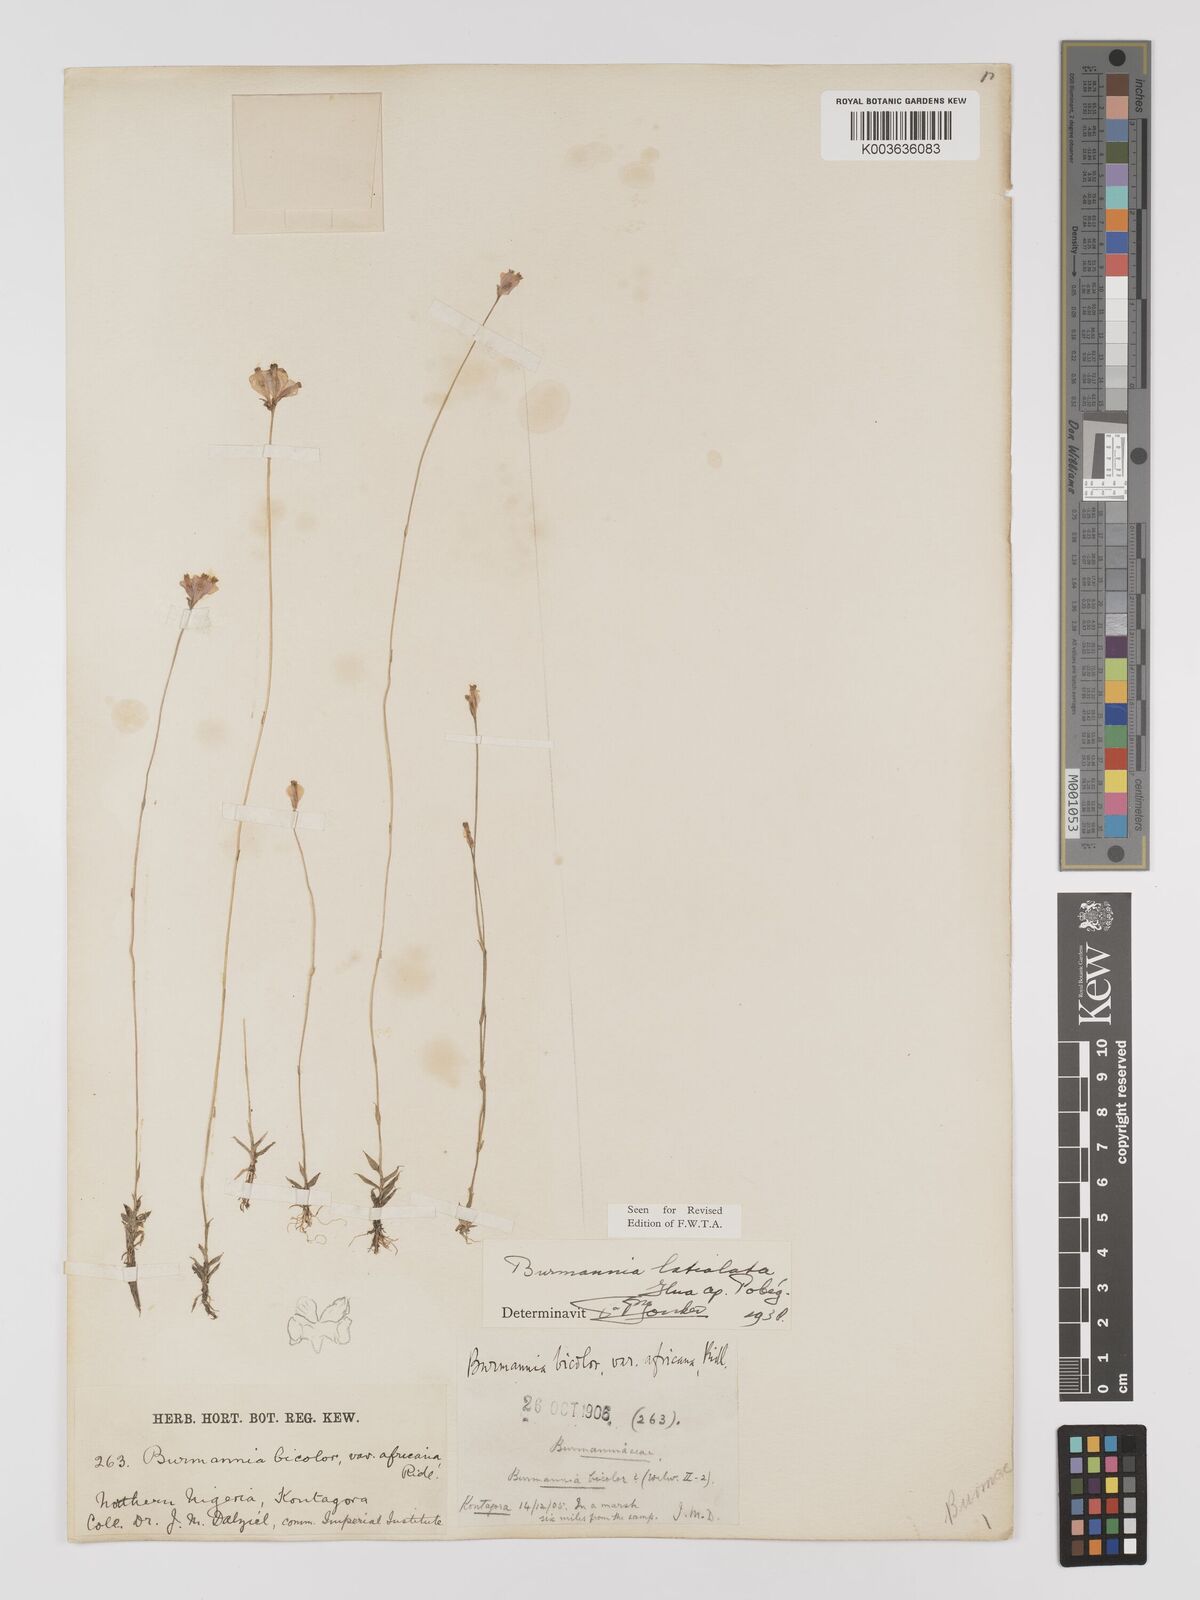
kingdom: Plantae
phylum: Tracheophyta
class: Liliopsida
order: Dioscoreales
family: Burmanniaceae
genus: Burmannia
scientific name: Burmannia madagascariensis
